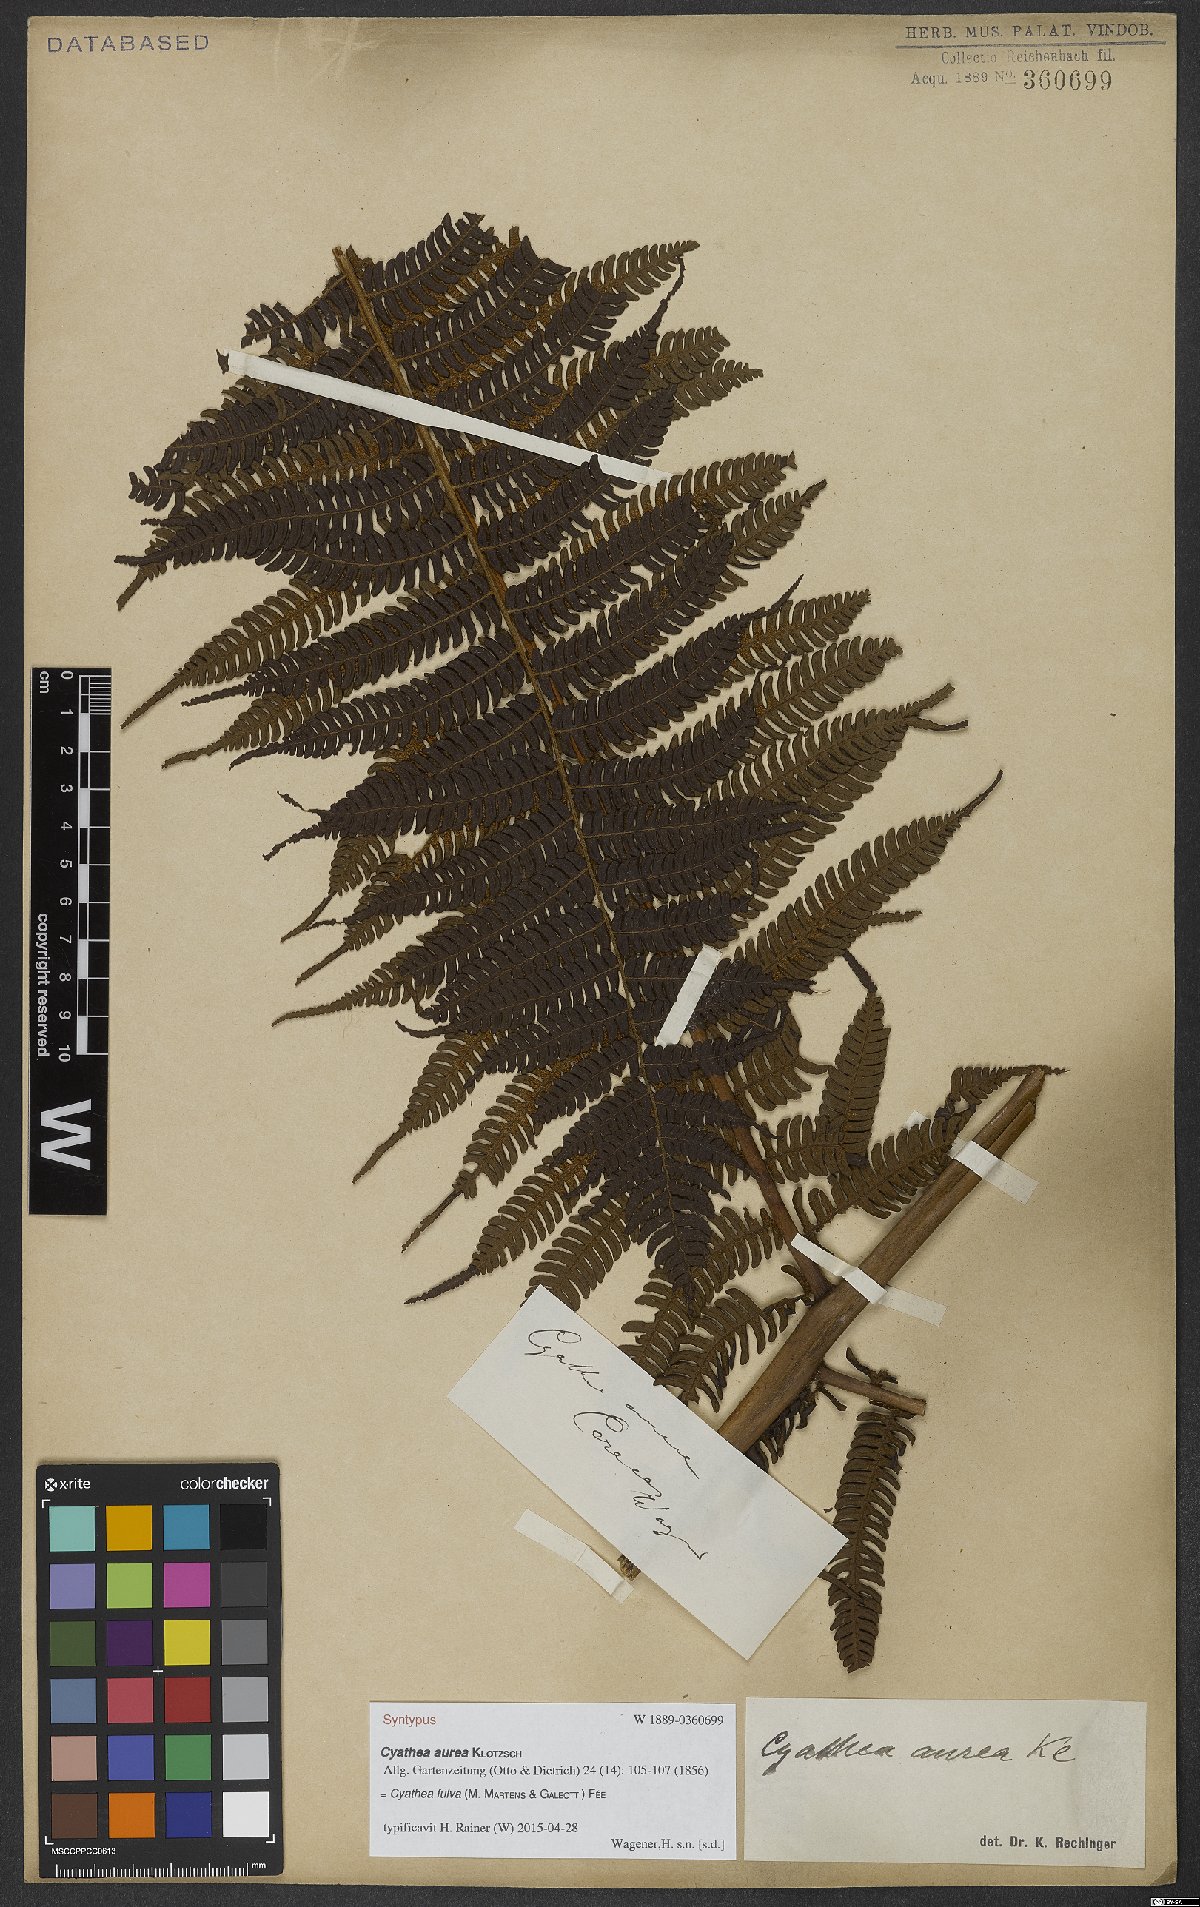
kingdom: Plantae
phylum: Tracheophyta
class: Polypodiopsida
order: Cyatheales
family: Cyatheaceae
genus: Cyathea
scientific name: Cyathea fulva
